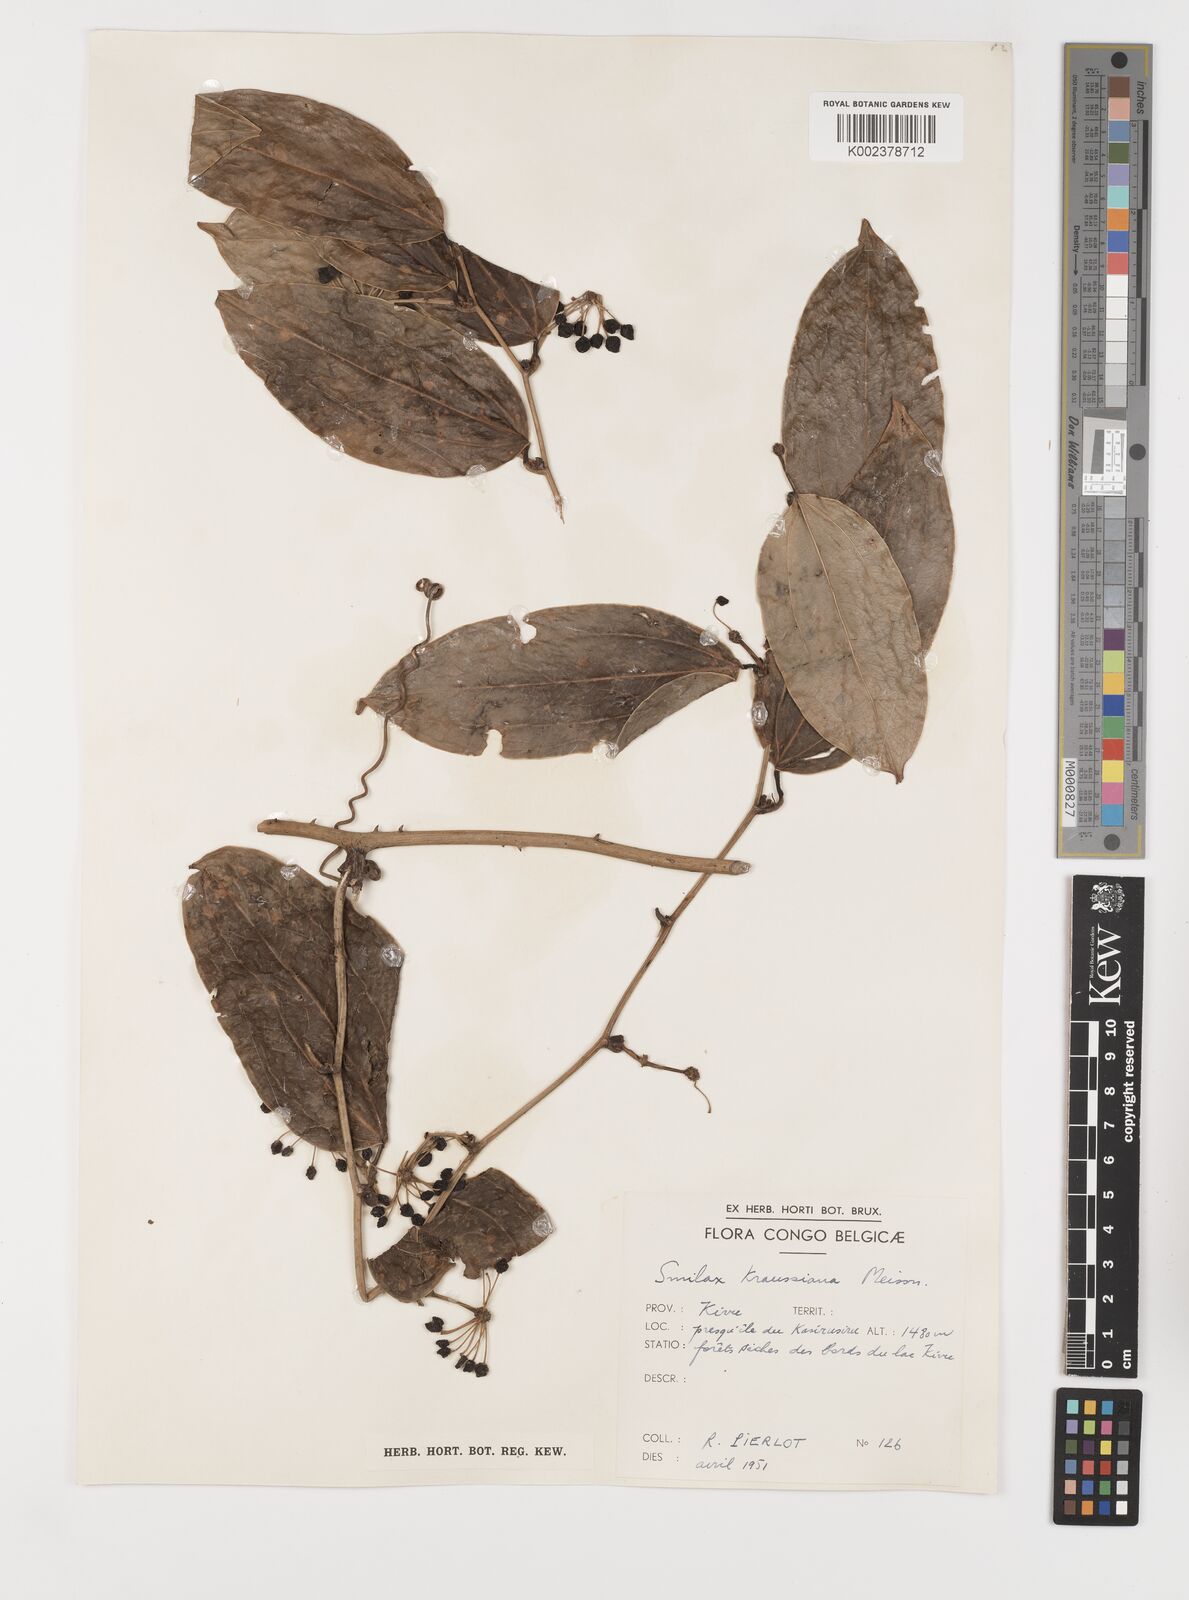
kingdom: Plantae
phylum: Tracheophyta
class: Liliopsida
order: Liliales
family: Smilacaceae
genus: Smilax
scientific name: Smilax anceps
